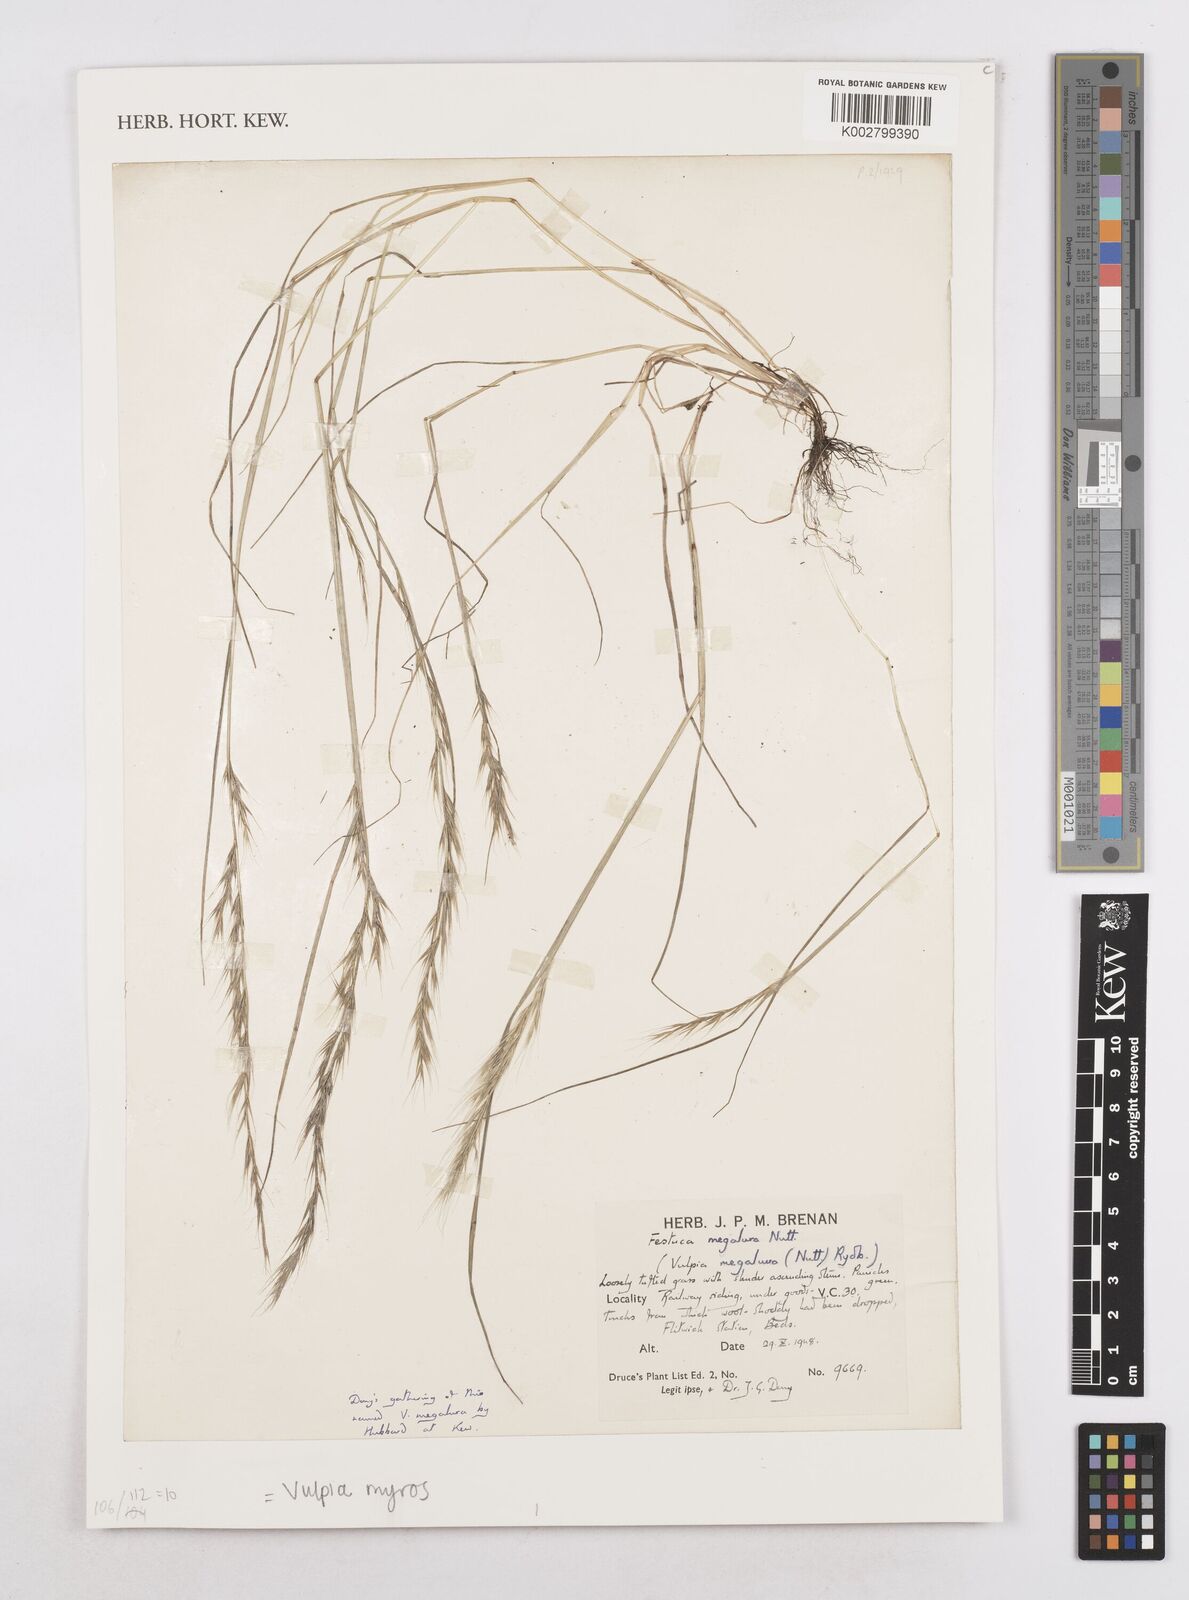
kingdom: Plantae
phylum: Tracheophyta
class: Liliopsida
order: Poales
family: Poaceae
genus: Festuca
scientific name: Festuca myuros
